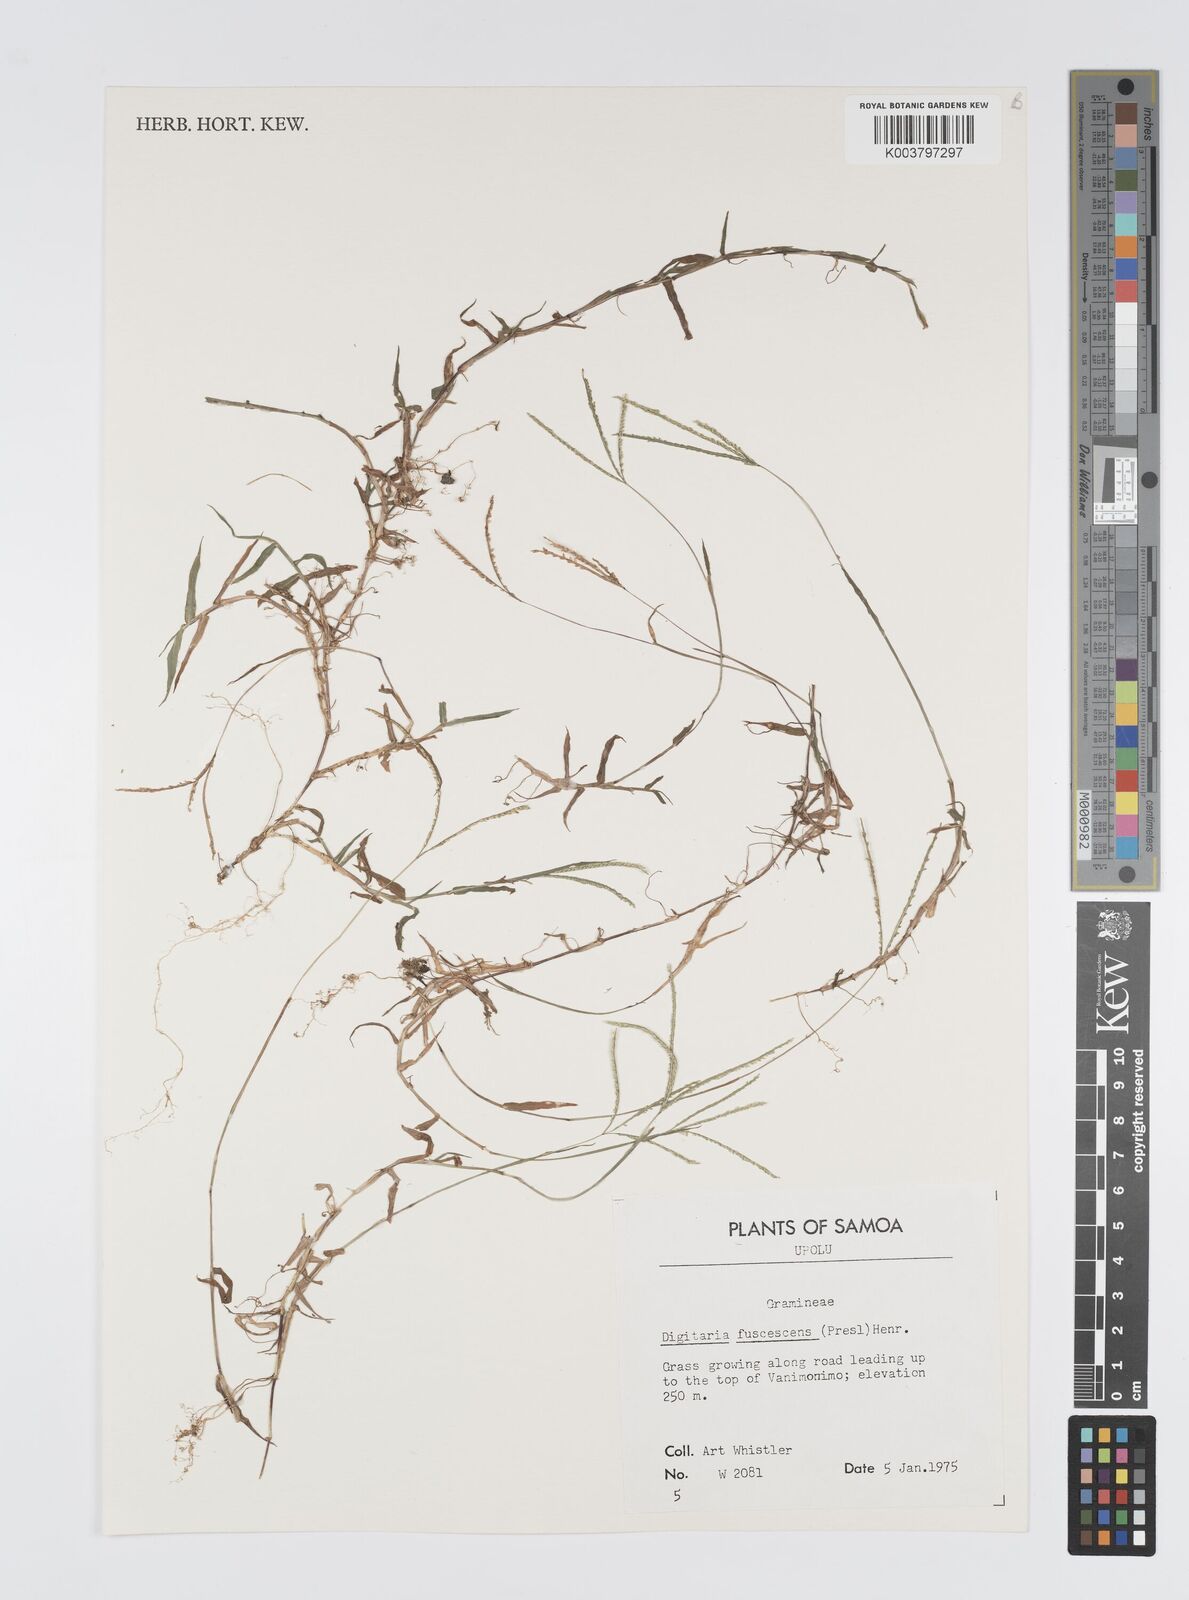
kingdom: Plantae
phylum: Tracheophyta
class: Liliopsida
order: Poales
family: Poaceae
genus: Digitaria
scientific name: Digitaria fuscescens
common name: Yellow crabgrass
